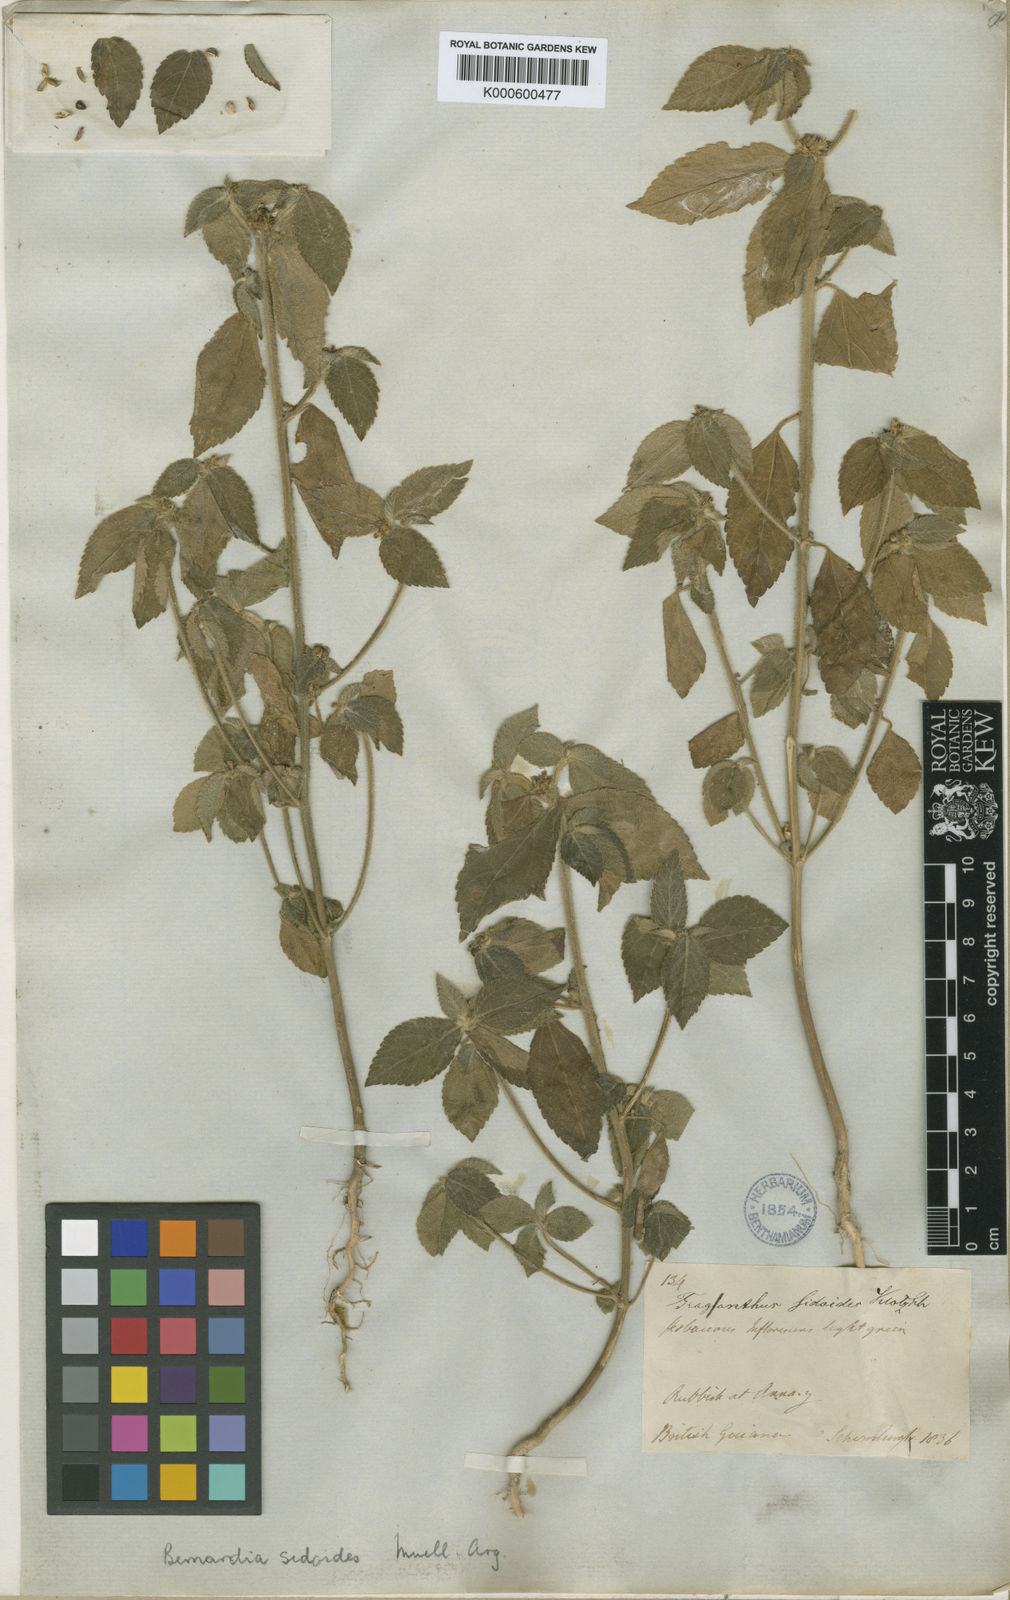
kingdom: Plantae
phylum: Tracheophyta
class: Magnoliopsida
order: Malpighiales
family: Euphorbiaceae
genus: Bernardia
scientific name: Bernardia
